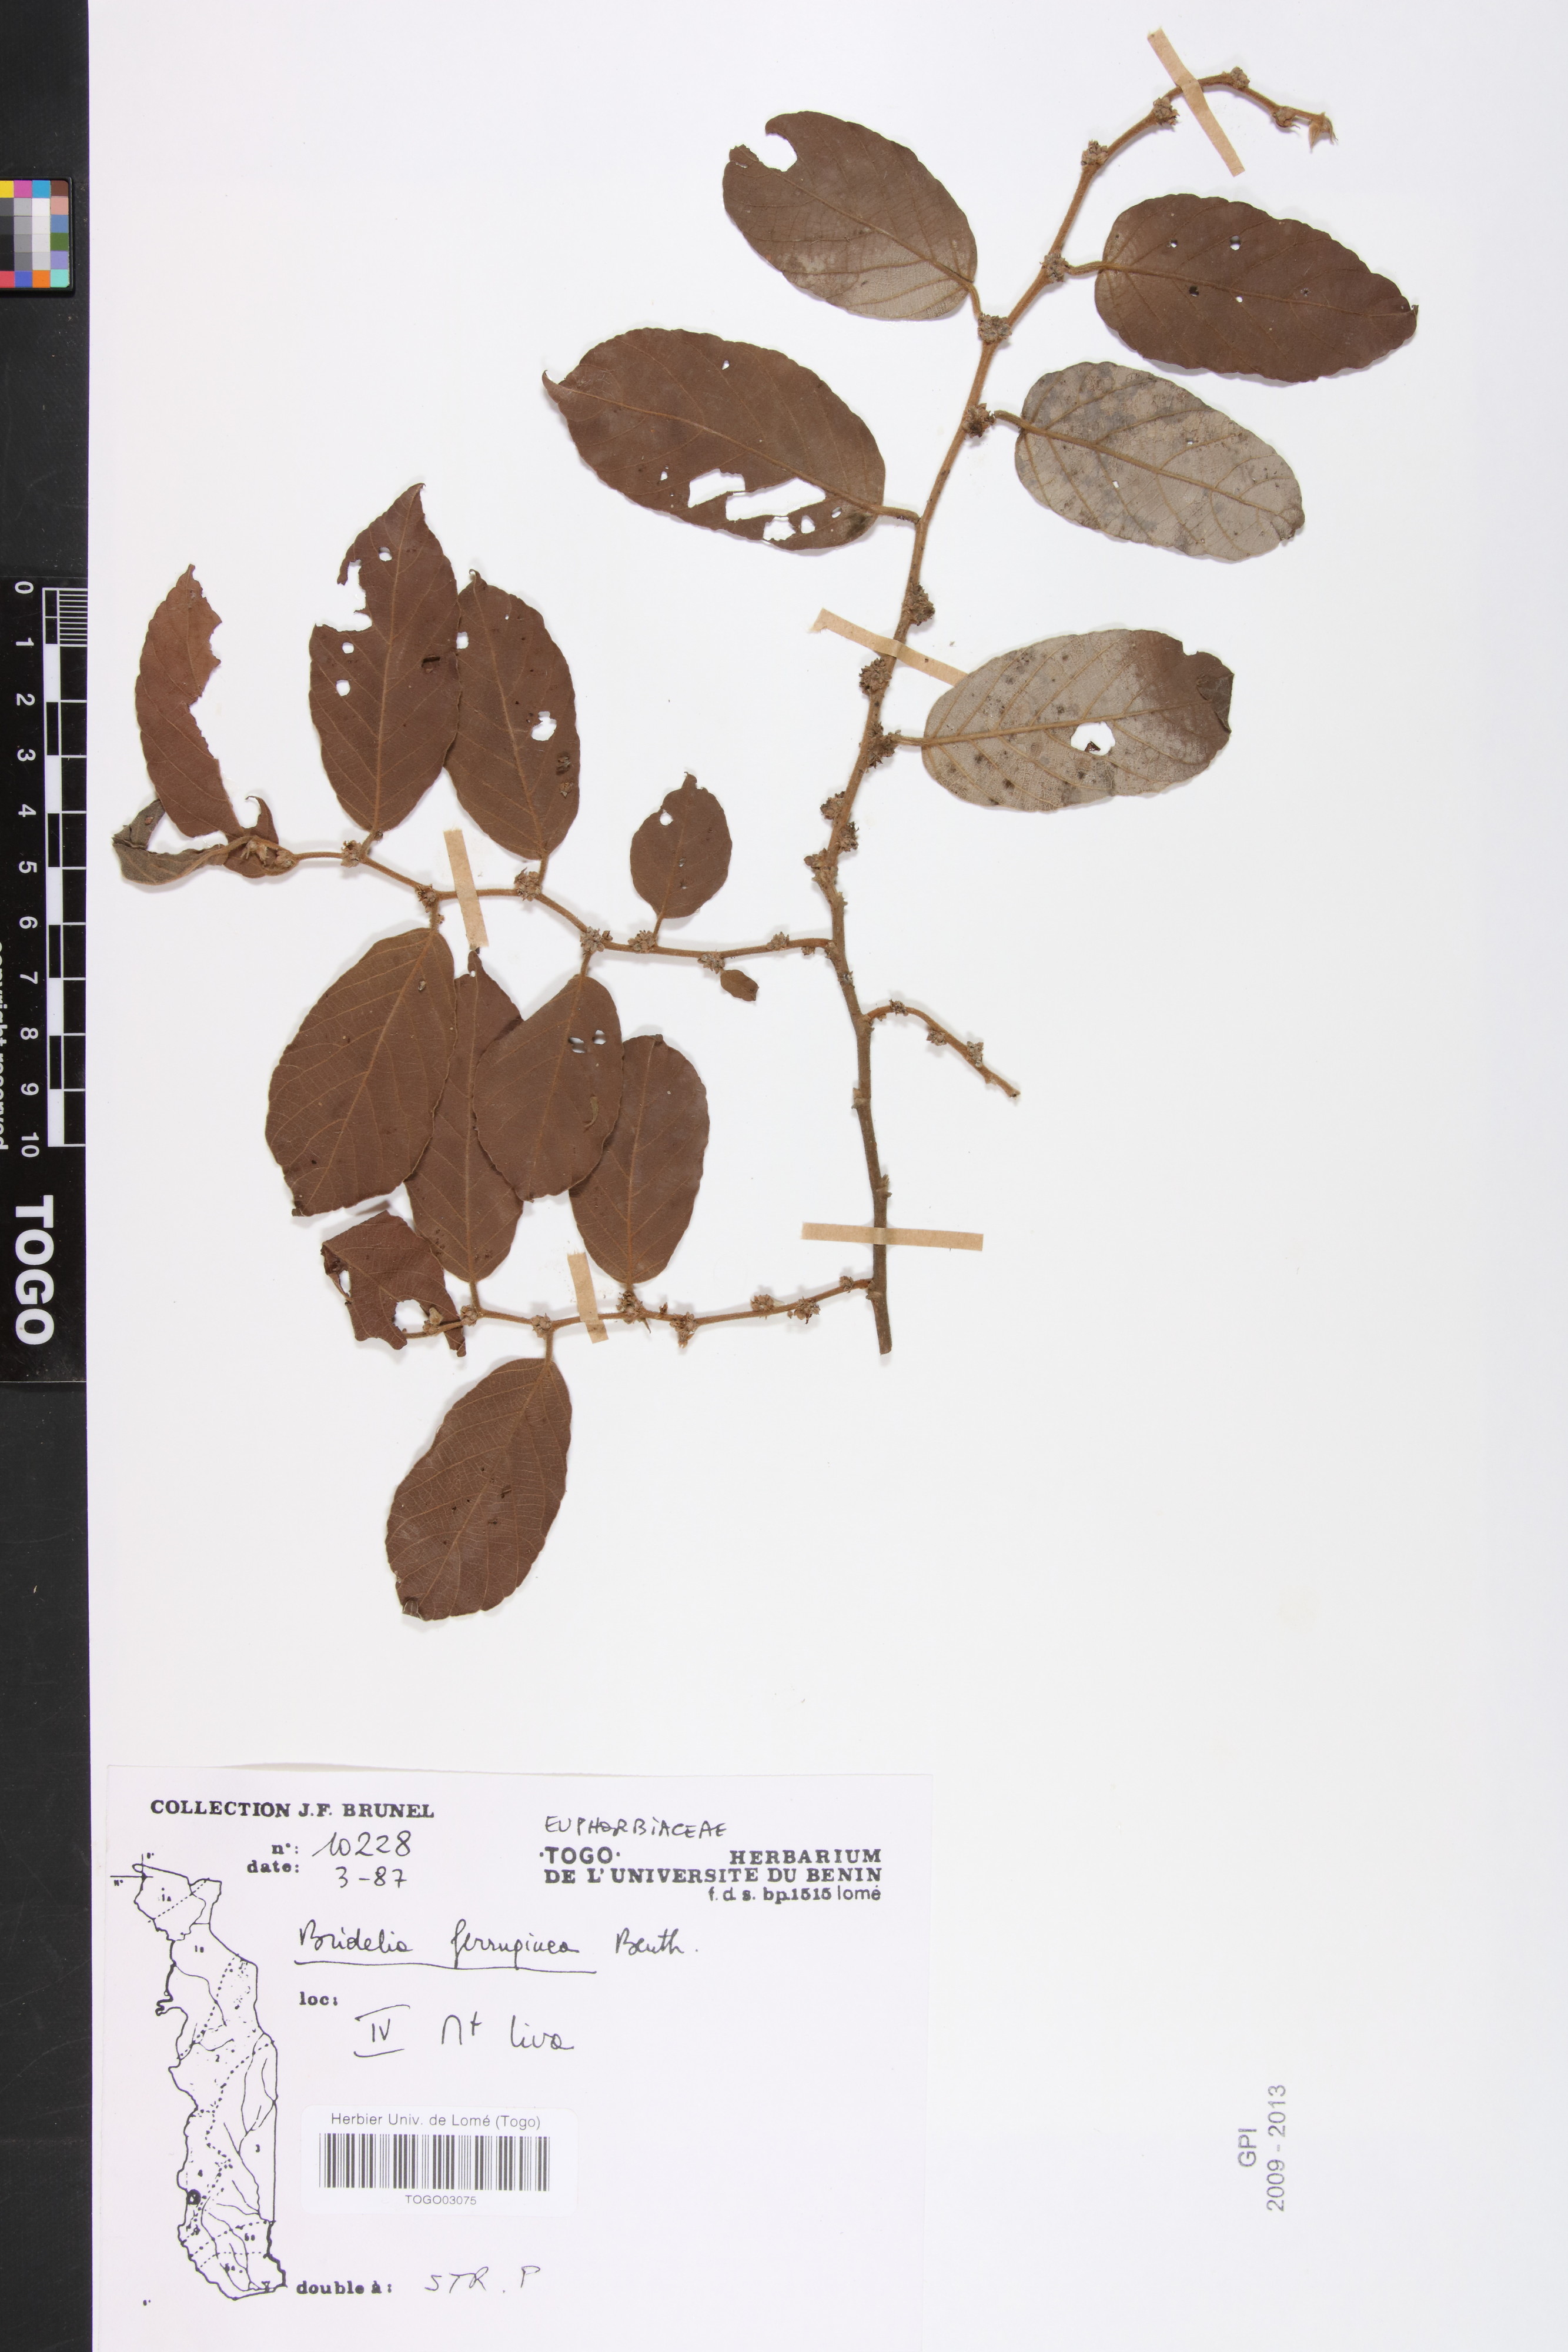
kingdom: Plantae
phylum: Tracheophyta
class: Magnoliopsida
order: Malpighiales
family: Phyllanthaceae
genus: Bridelia
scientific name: Bridelia ferruginea
